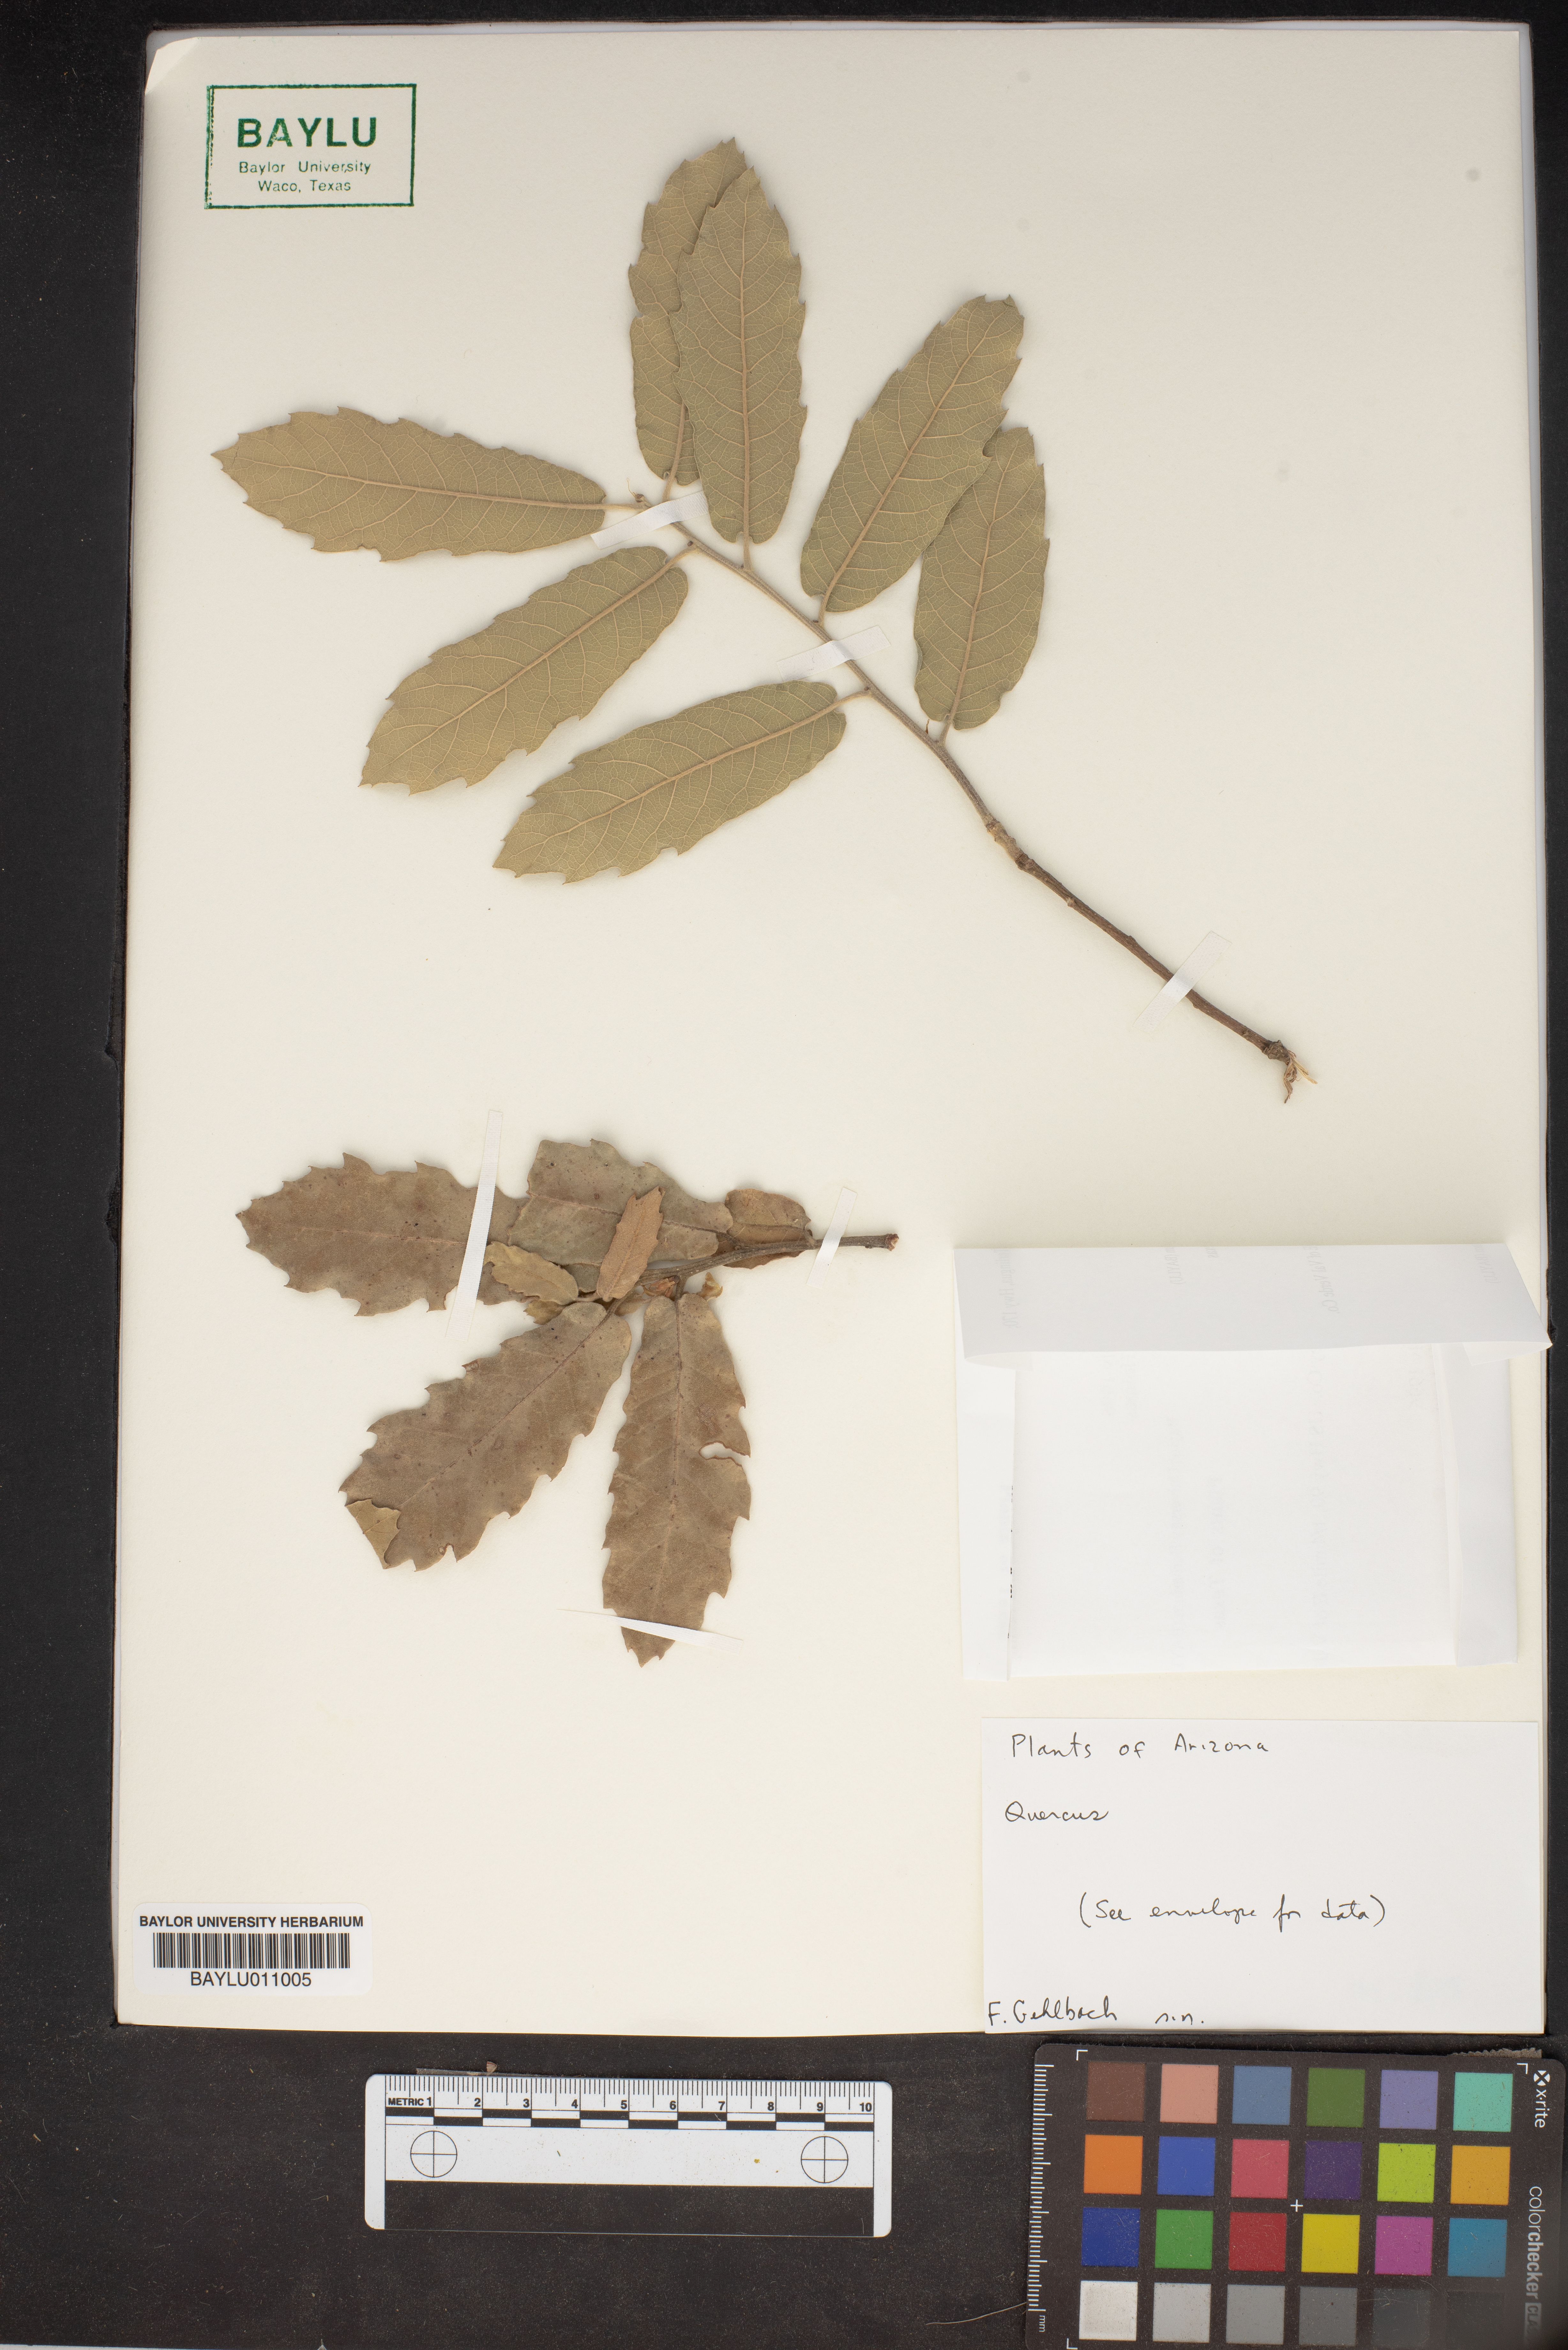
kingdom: Plantae
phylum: Tracheophyta
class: Magnoliopsida
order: Fagales
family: Fagaceae
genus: Quercus
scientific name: Quercus
